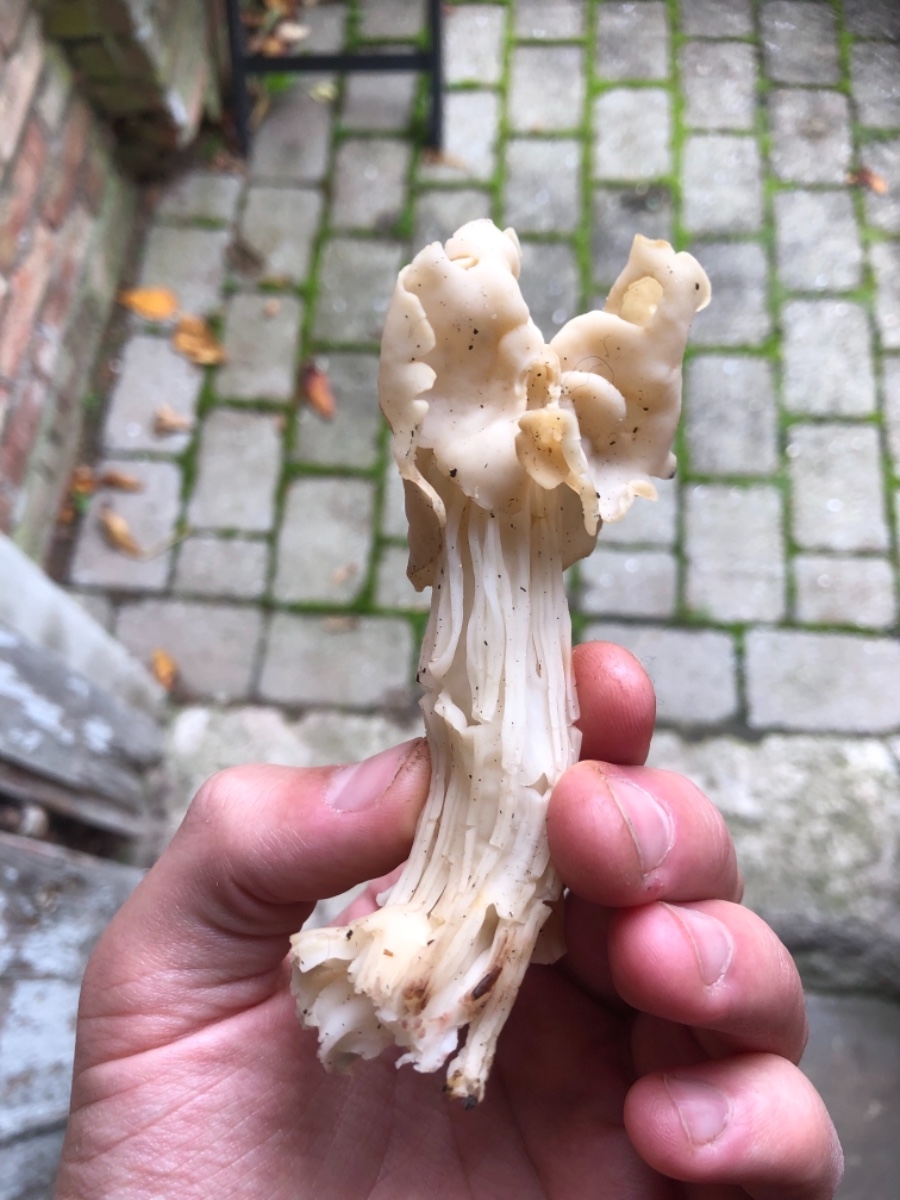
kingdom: Fungi
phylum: Ascomycota
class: Pezizomycetes
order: Pezizales
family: Helvellaceae
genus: Helvella
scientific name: Helvella crispa
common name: kruset foldhat
